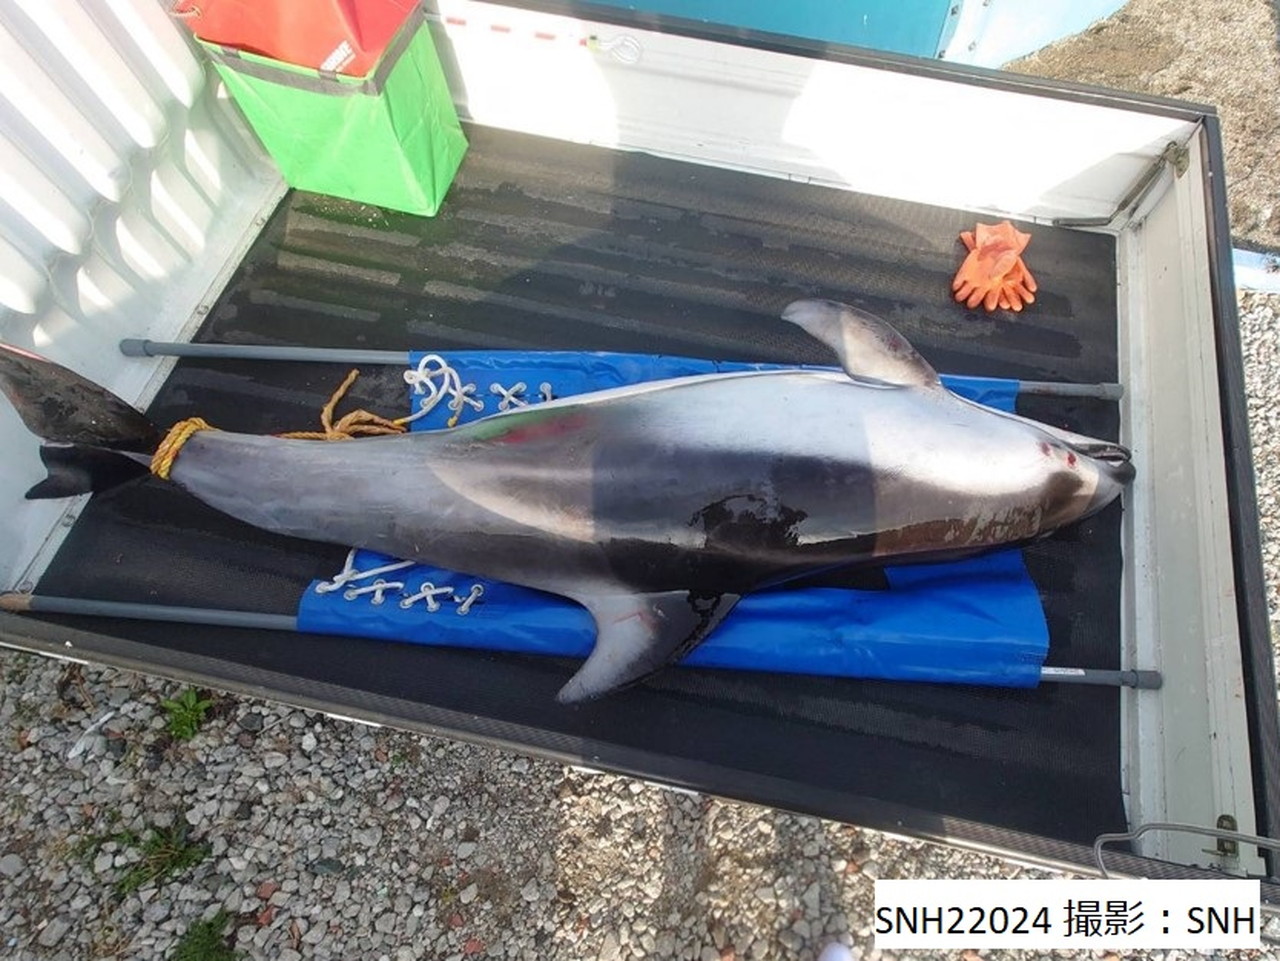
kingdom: Animalia
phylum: Chordata
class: Mammalia
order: Cetacea
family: Delphinidae
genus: Lagenorhynchus
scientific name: Lagenorhynchus obliquidens
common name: Pacific white-sided dolphin
